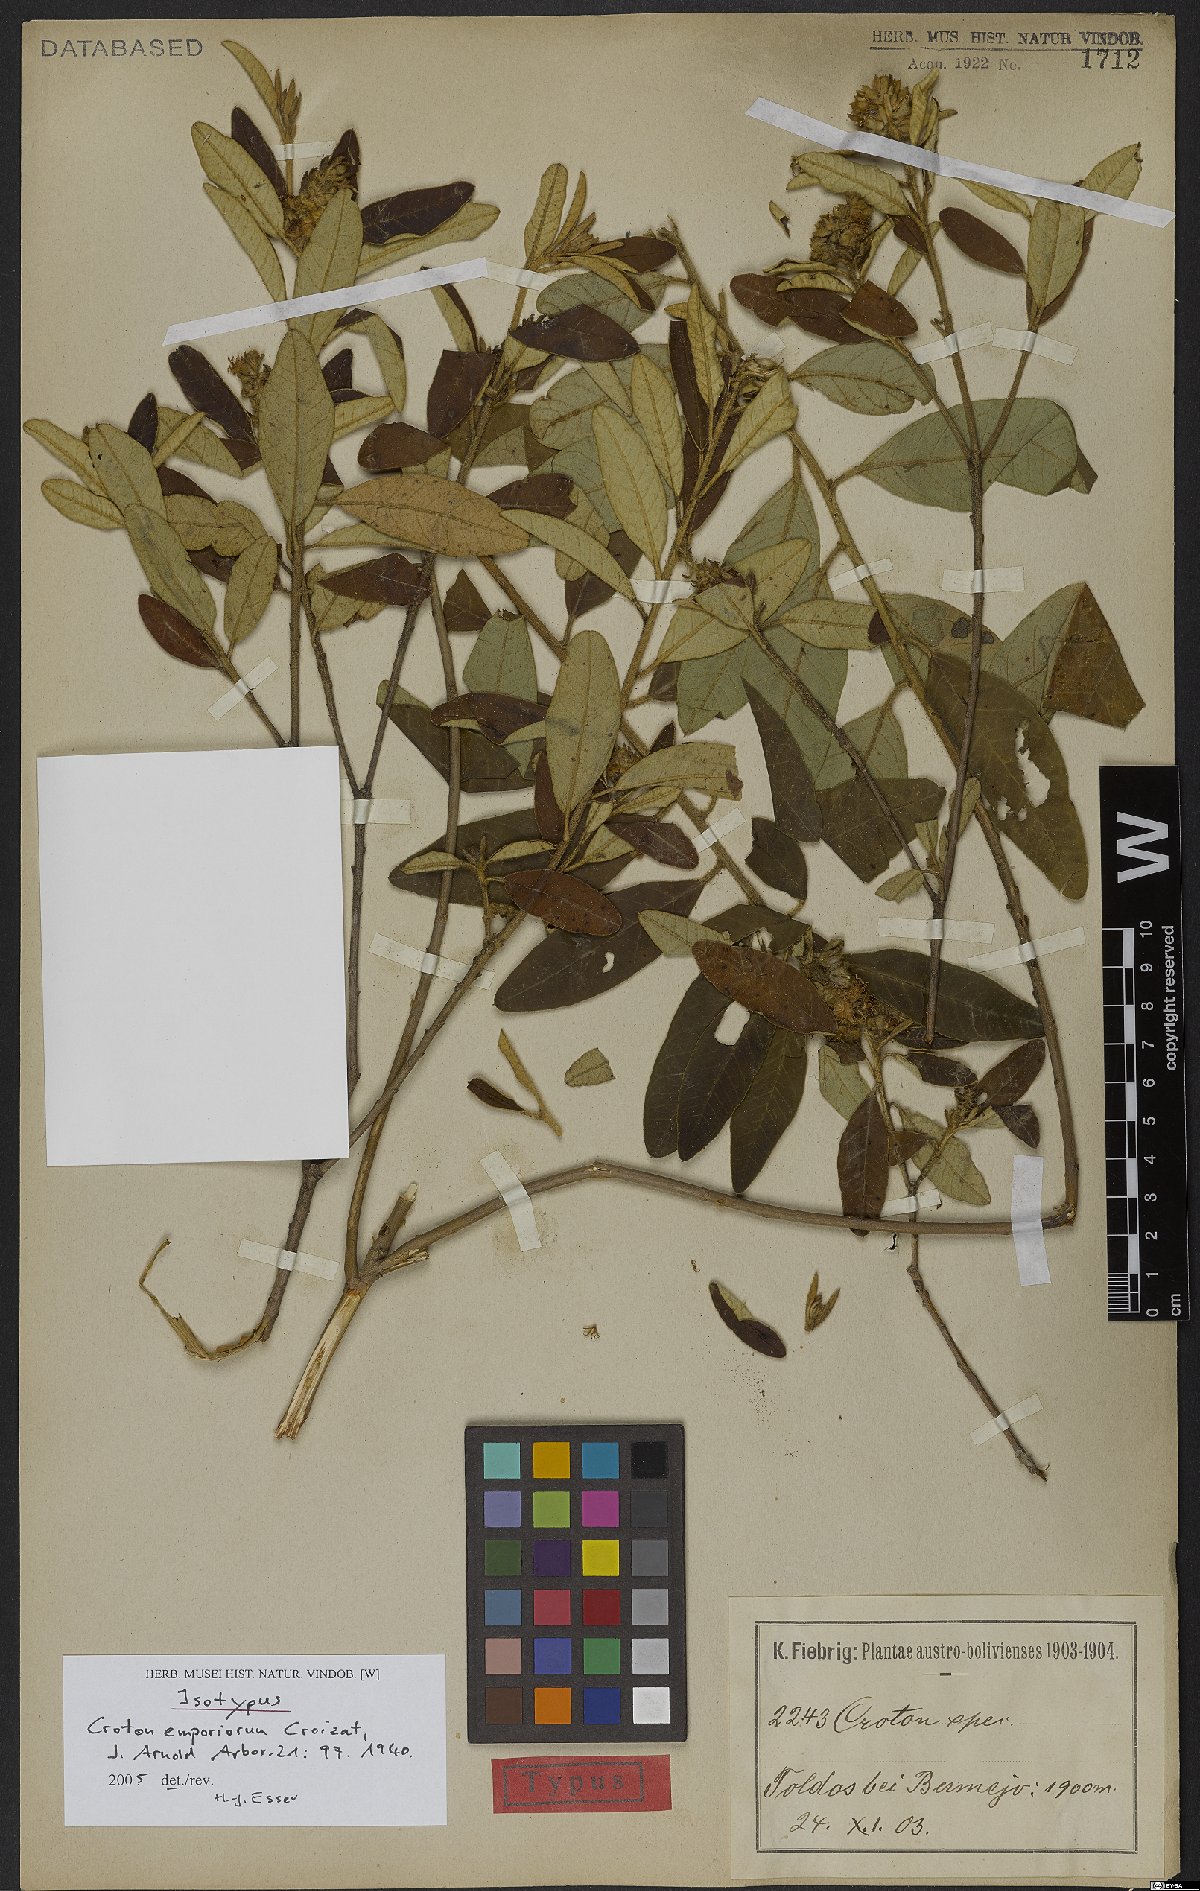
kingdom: Plantae
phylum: Tracheophyta
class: Magnoliopsida
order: Malpighiales
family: Euphorbiaceae
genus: Croton
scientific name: Croton emporiorum
